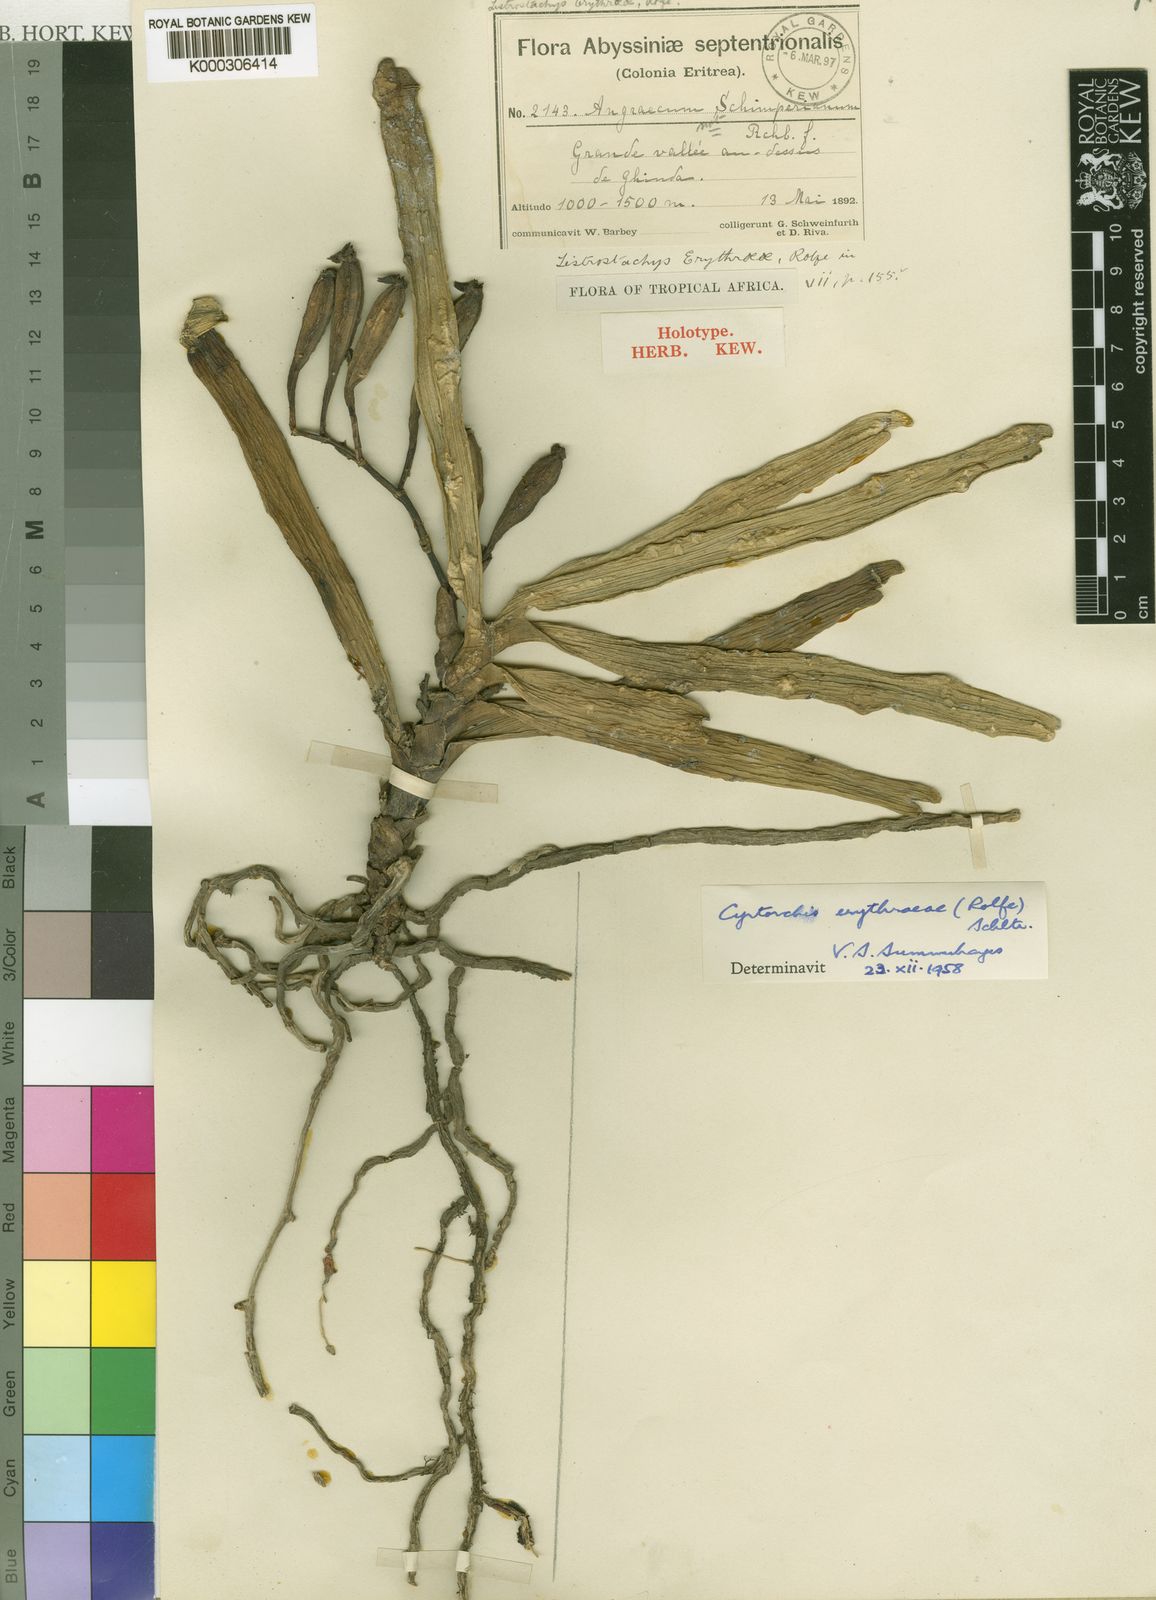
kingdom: Plantae
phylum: Tracheophyta
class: Liliopsida
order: Asparagales
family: Orchidaceae
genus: Cyrtorchis
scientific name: Cyrtorchis erythraeae
